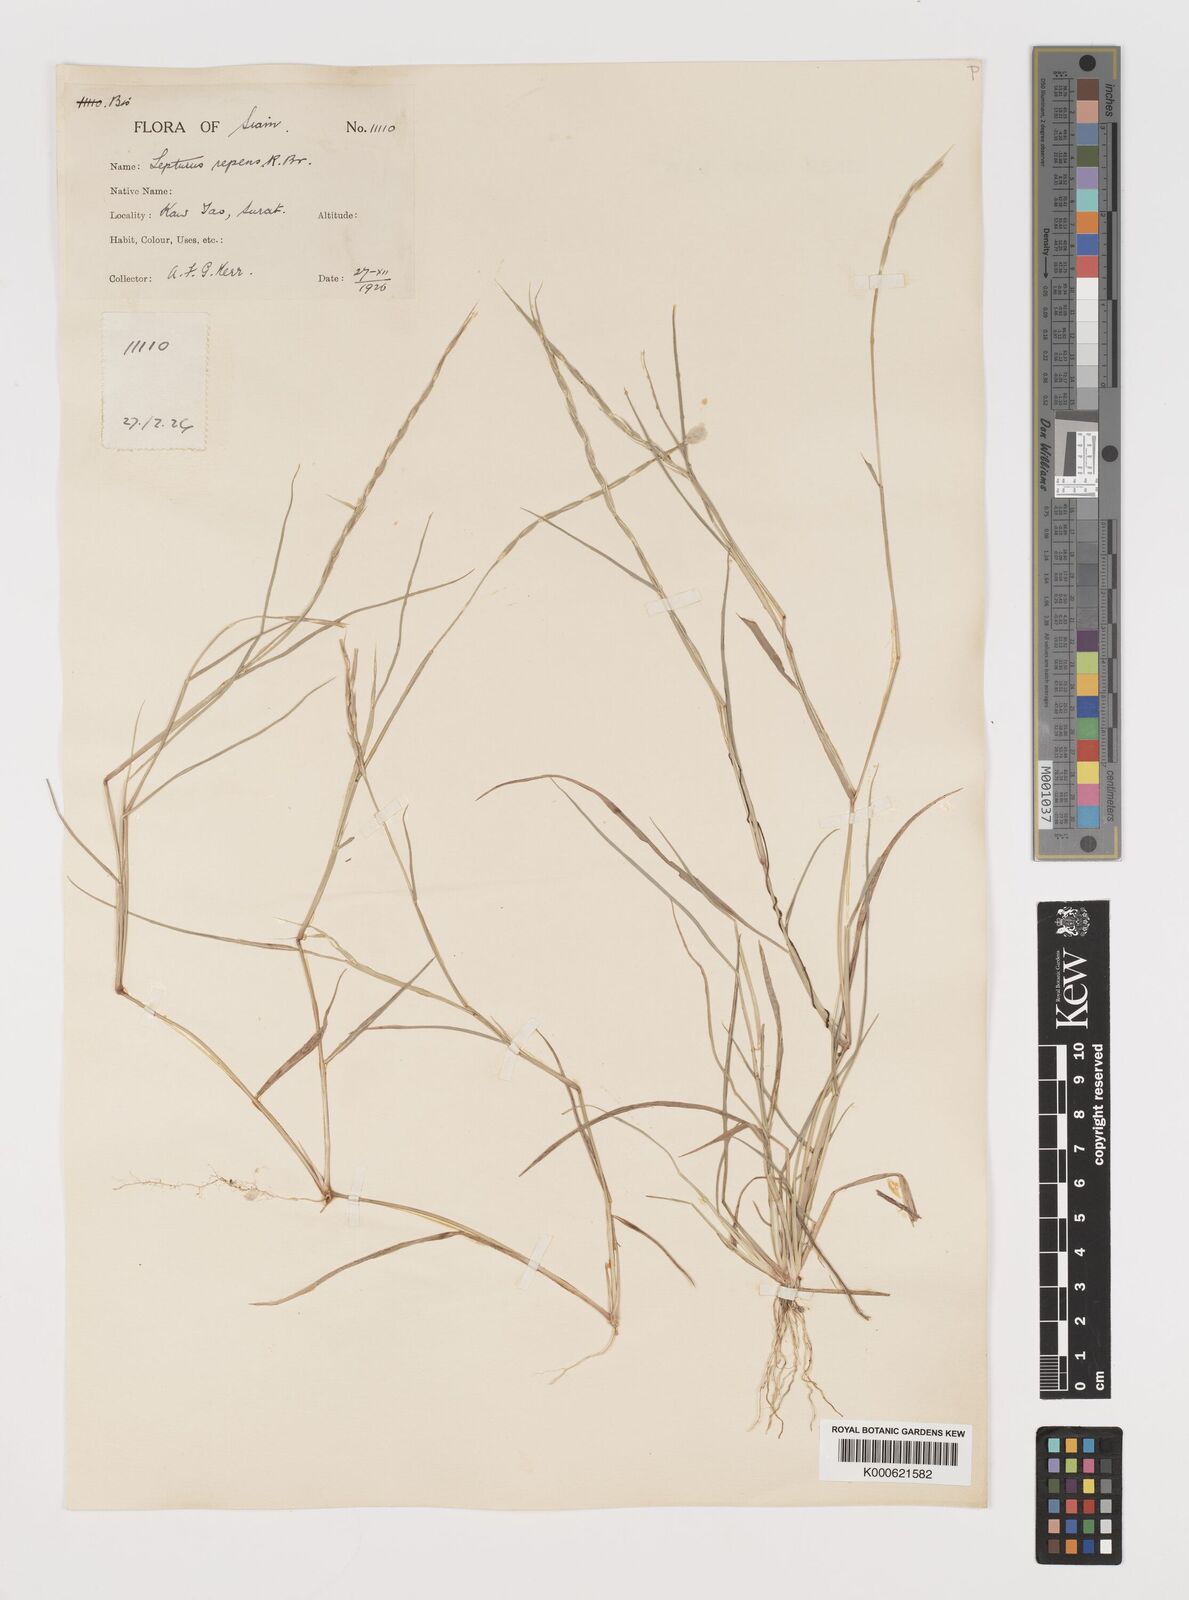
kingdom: Plantae
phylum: Tracheophyta
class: Liliopsida
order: Poales
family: Poaceae
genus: Lepturus
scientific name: Lepturus repens
